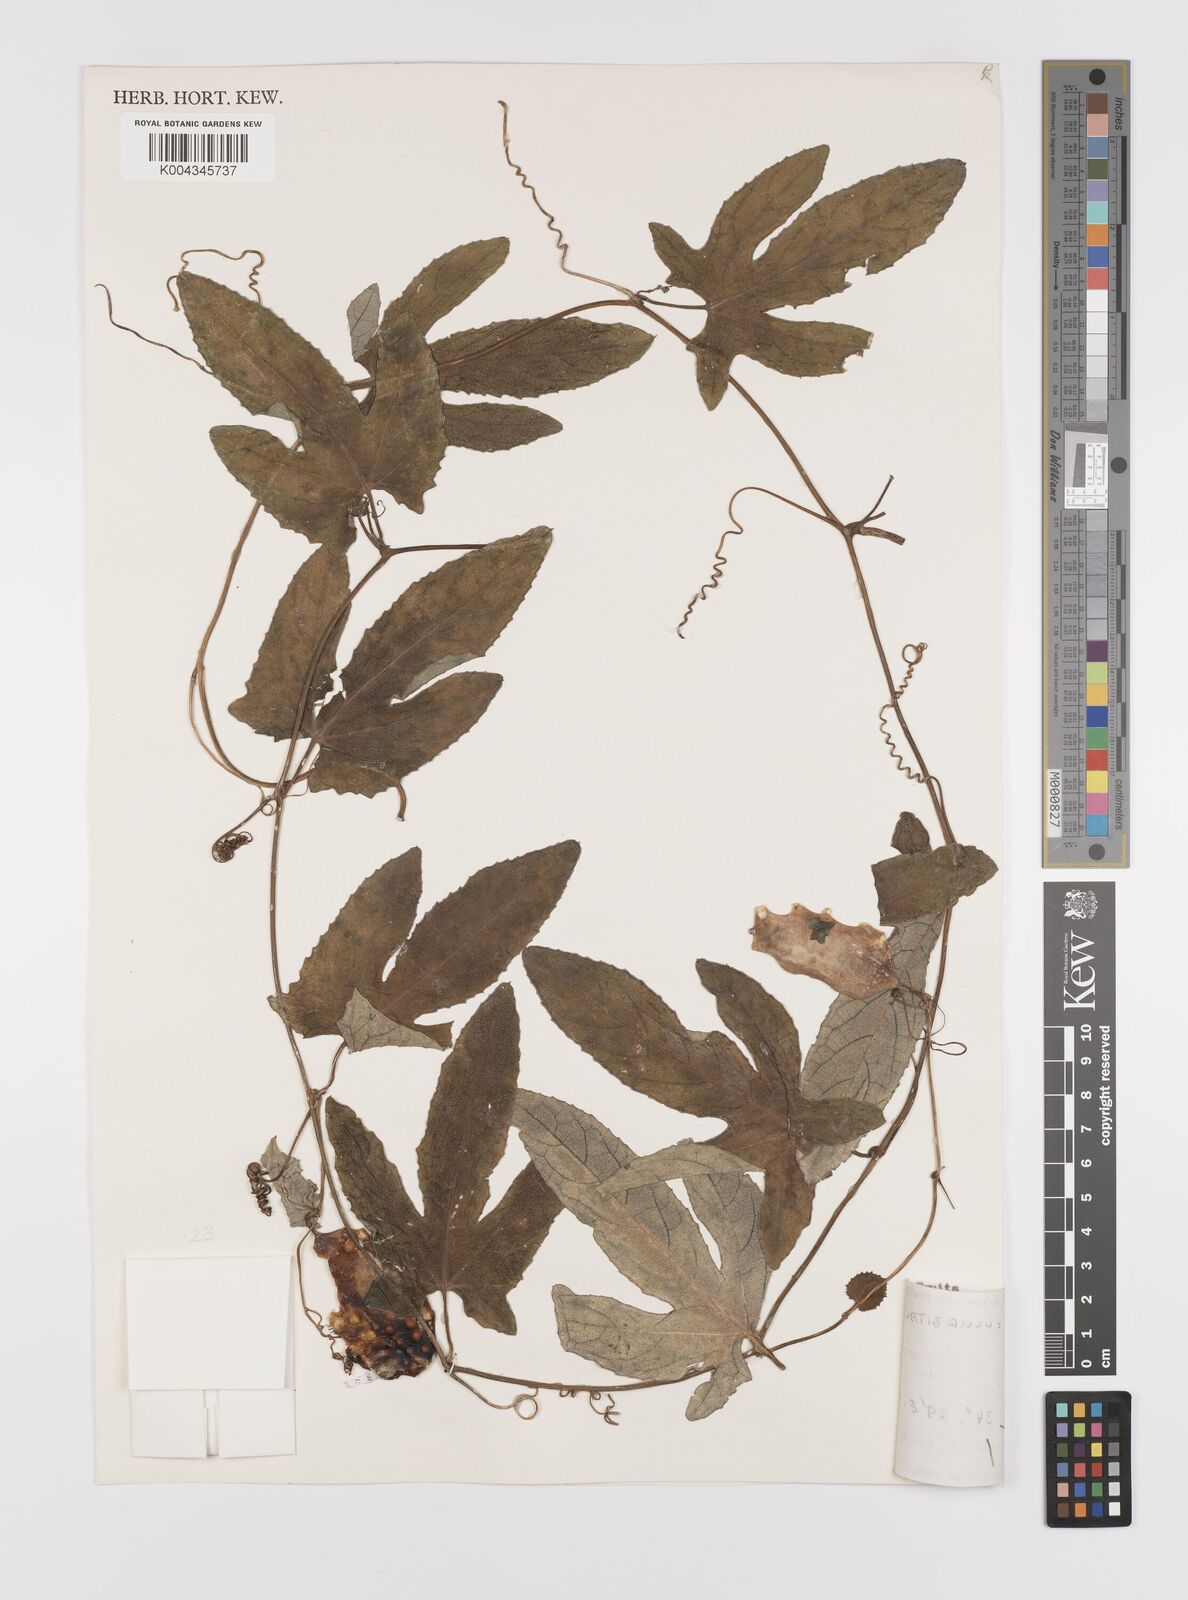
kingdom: Plantae
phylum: Tracheophyta
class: Magnoliopsida
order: Cucurbitales
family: Cucurbitaceae
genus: Coccinia
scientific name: Coccinia adoensis
